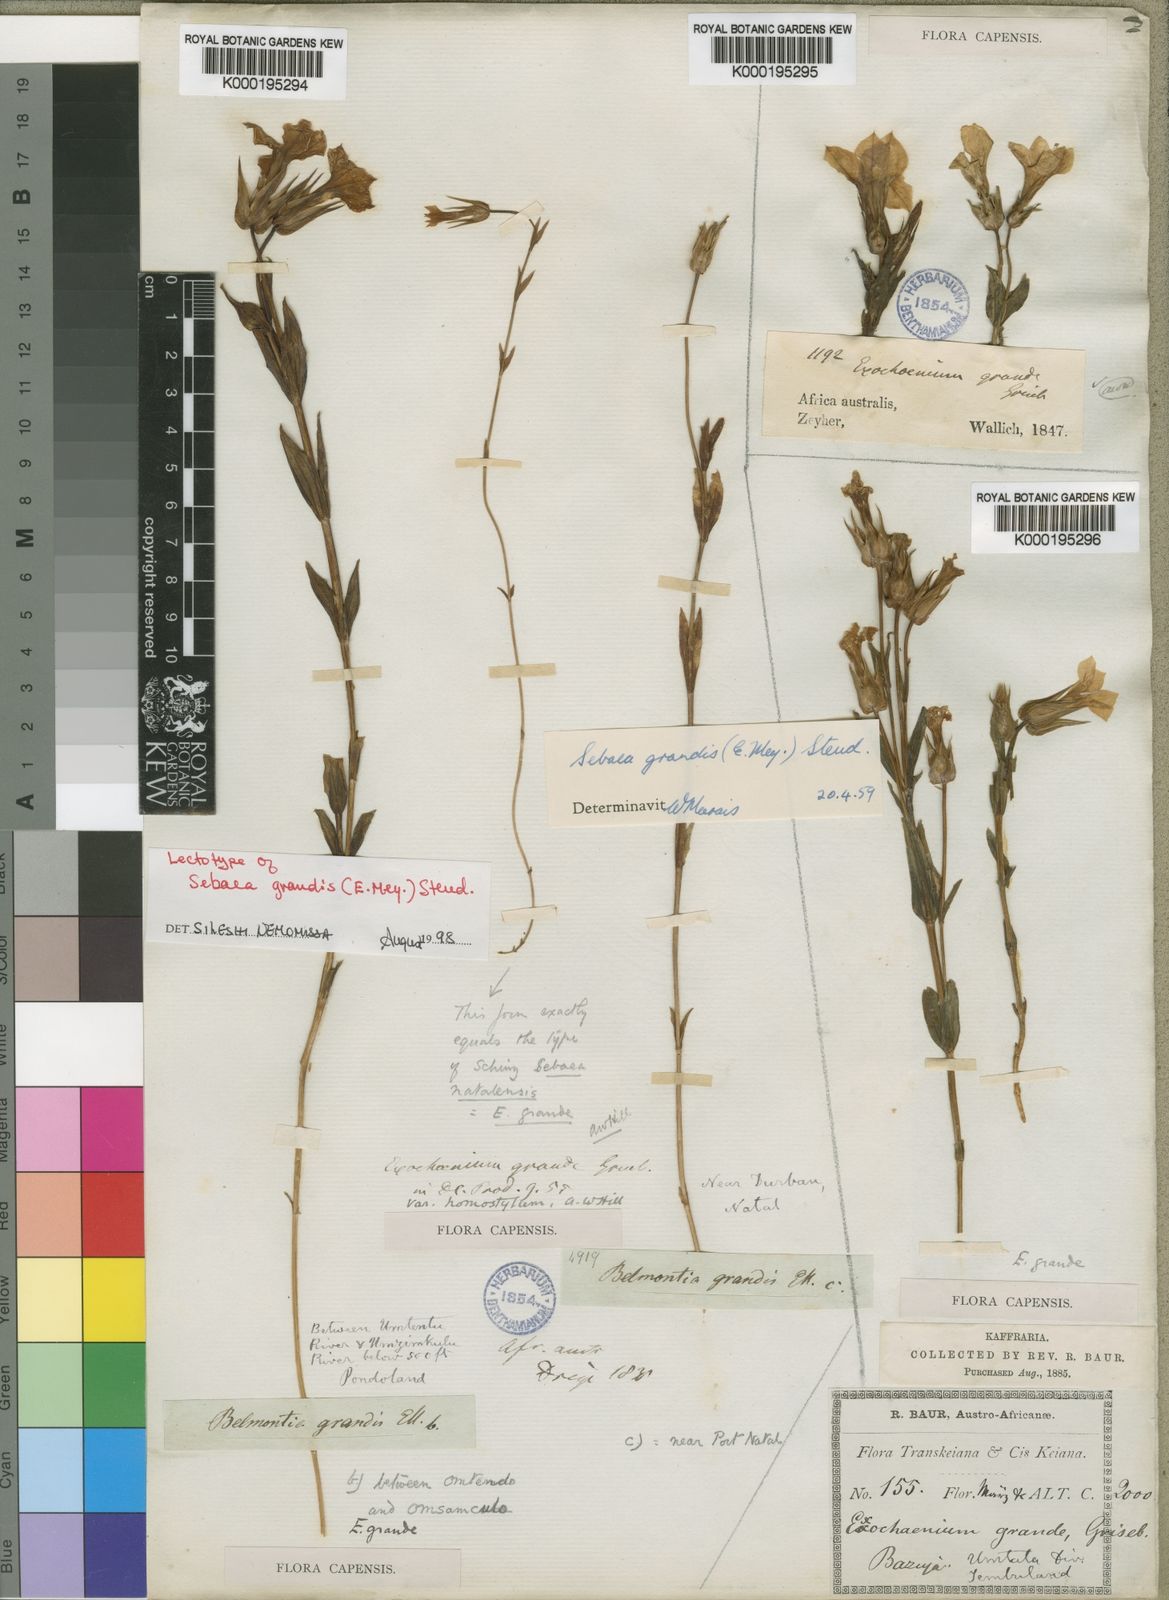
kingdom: Plantae
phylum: Tracheophyta
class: Magnoliopsida
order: Gentianales
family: Gentianaceae
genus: Exochaenium
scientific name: Exochaenium grande
